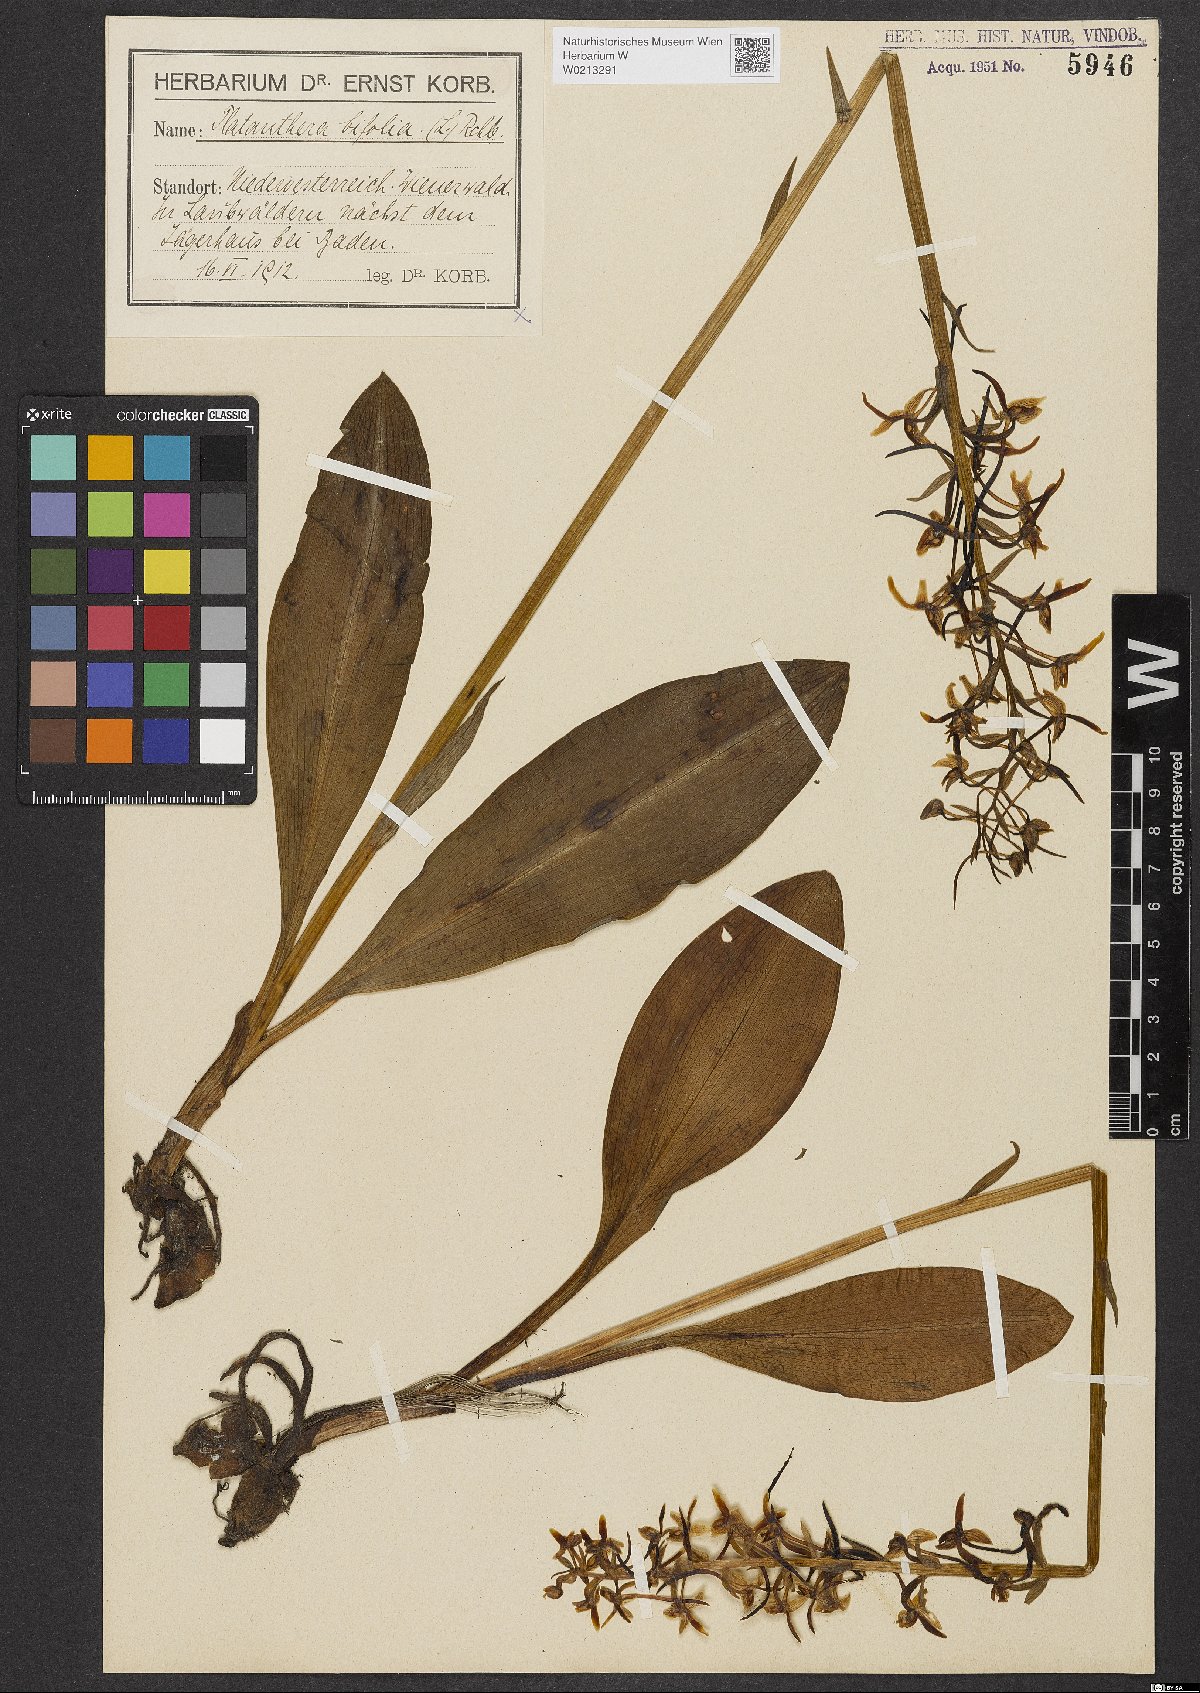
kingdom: Plantae
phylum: Tracheophyta
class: Liliopsida
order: Asparagales
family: Orchidaceae
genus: Platanthera
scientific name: Platanthera bifolia
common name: Lesser butterfly-orchid
